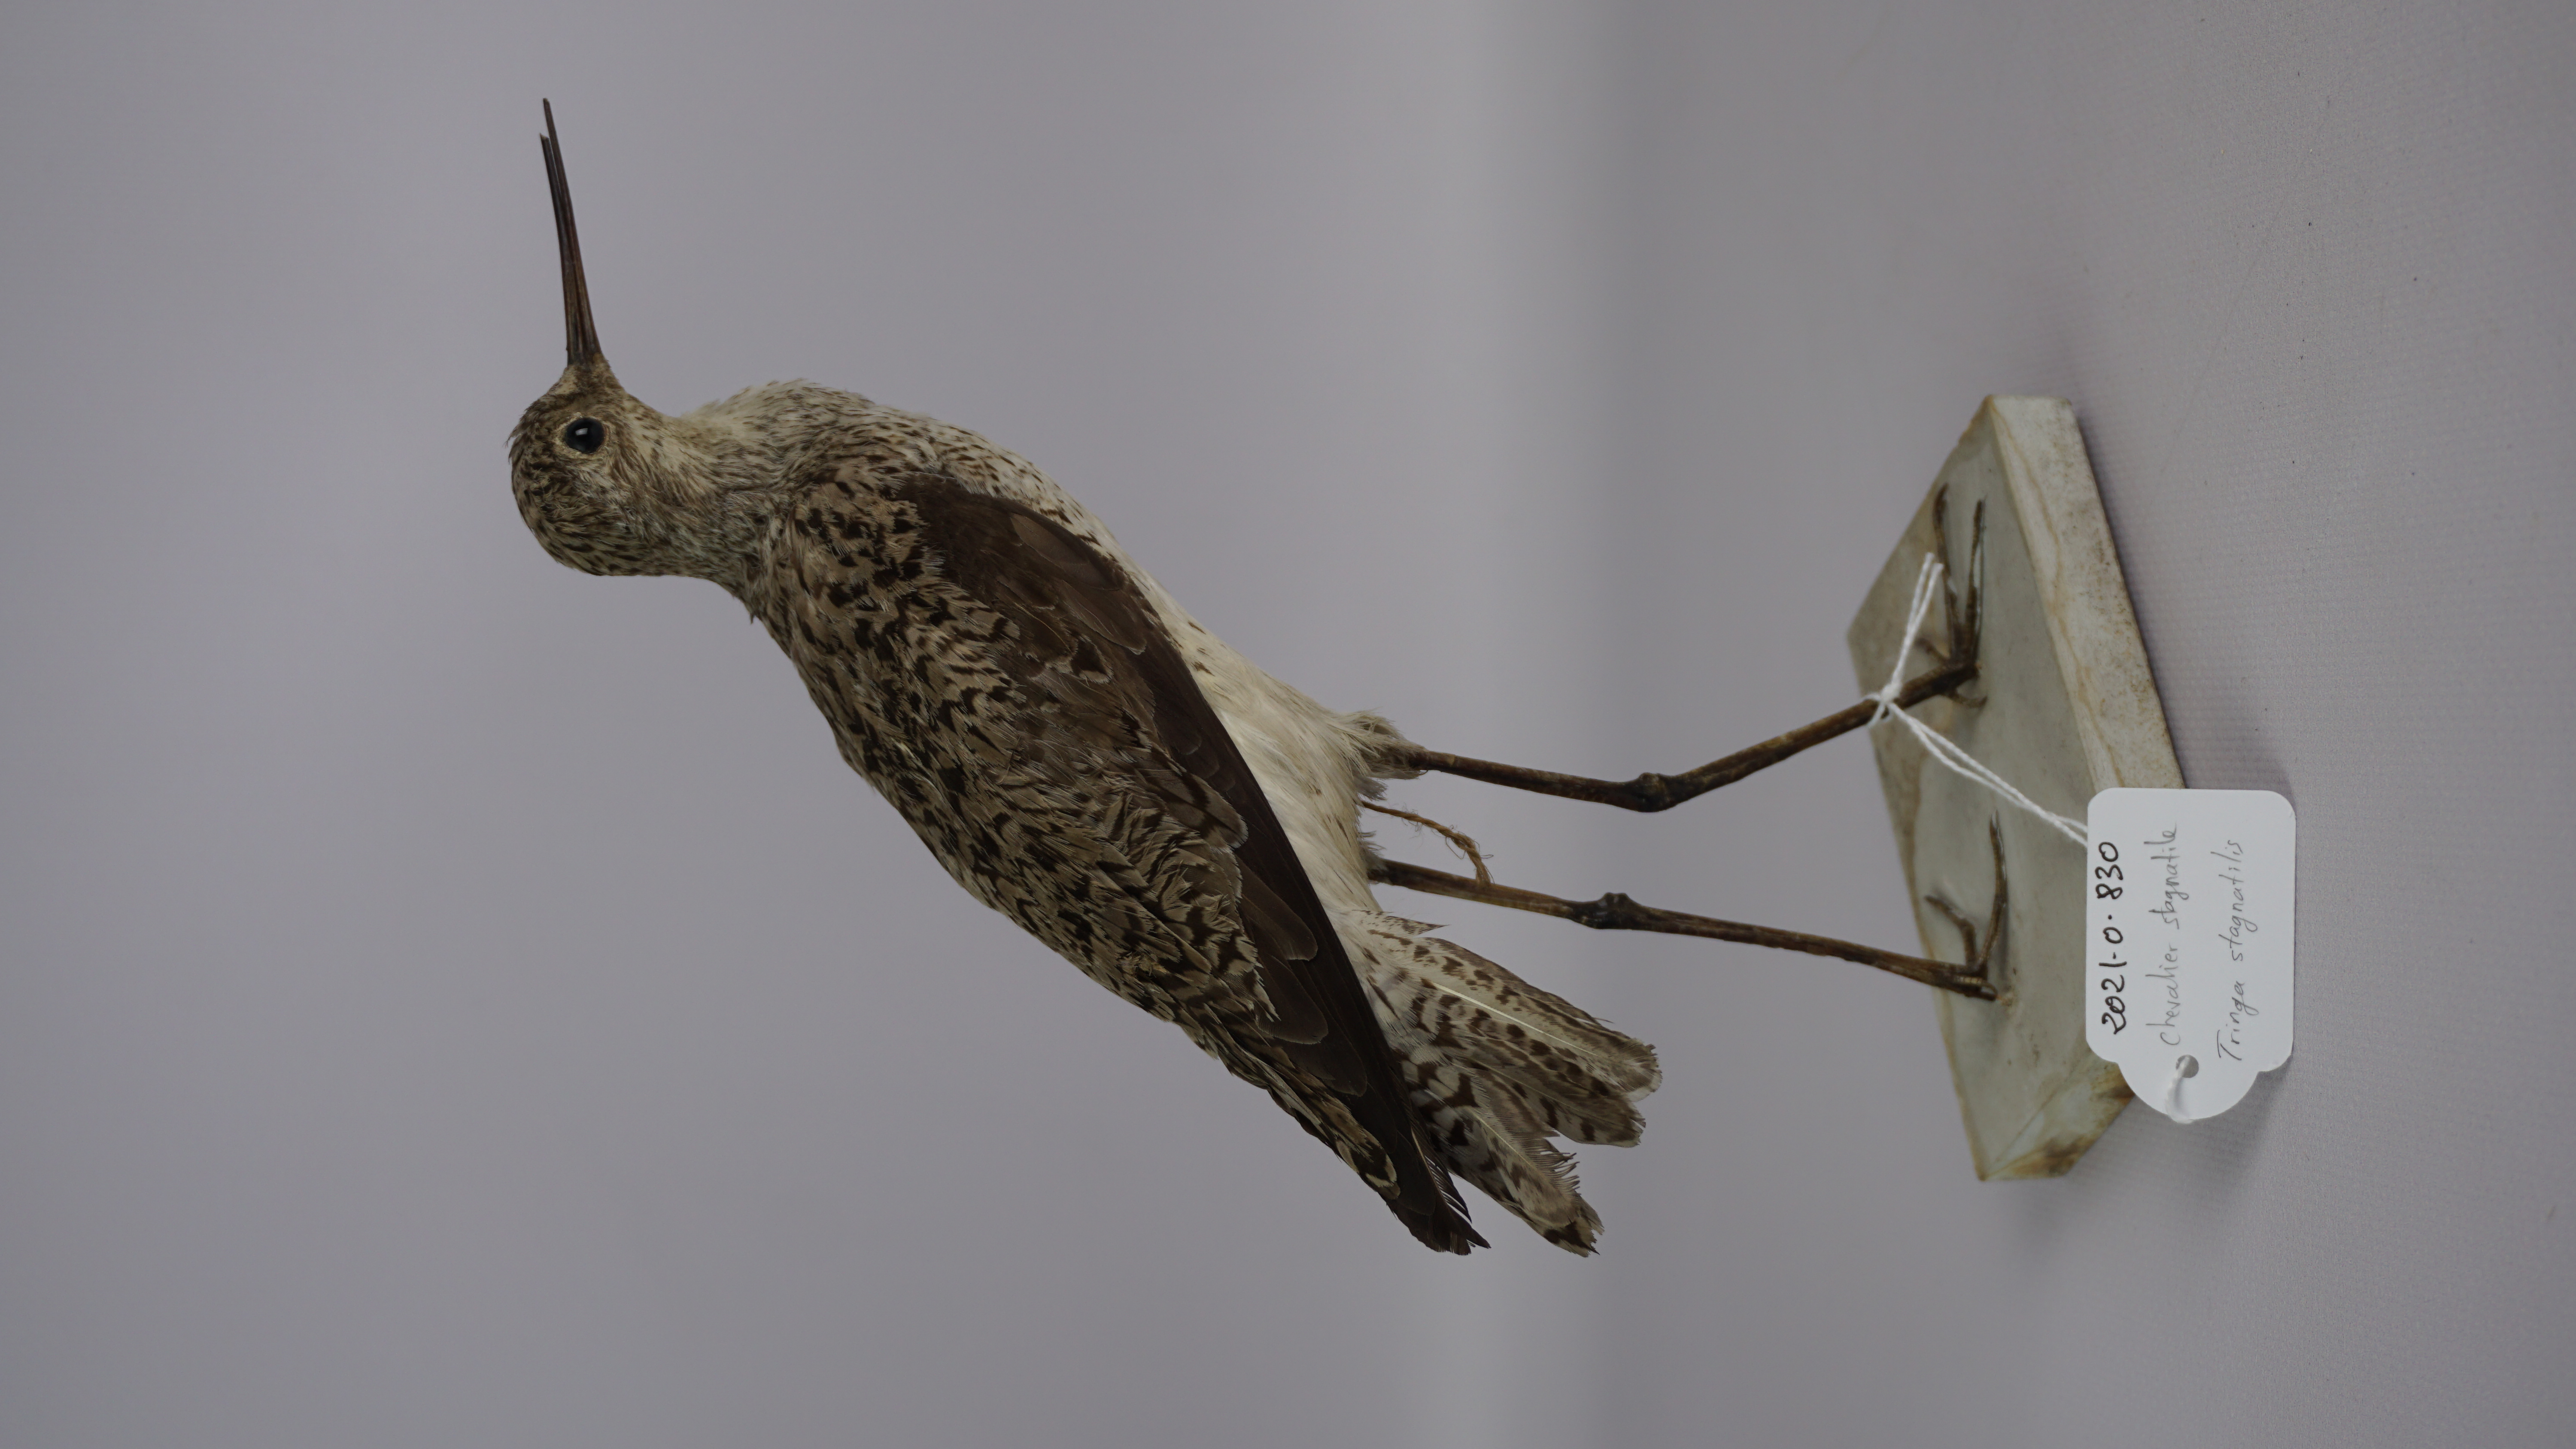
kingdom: Animalia
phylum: Chordata
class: Aves
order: Charadriiformes
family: Scolopacidae
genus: Tringa
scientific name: Tringa stagnatilis
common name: Marsh sandpiper
